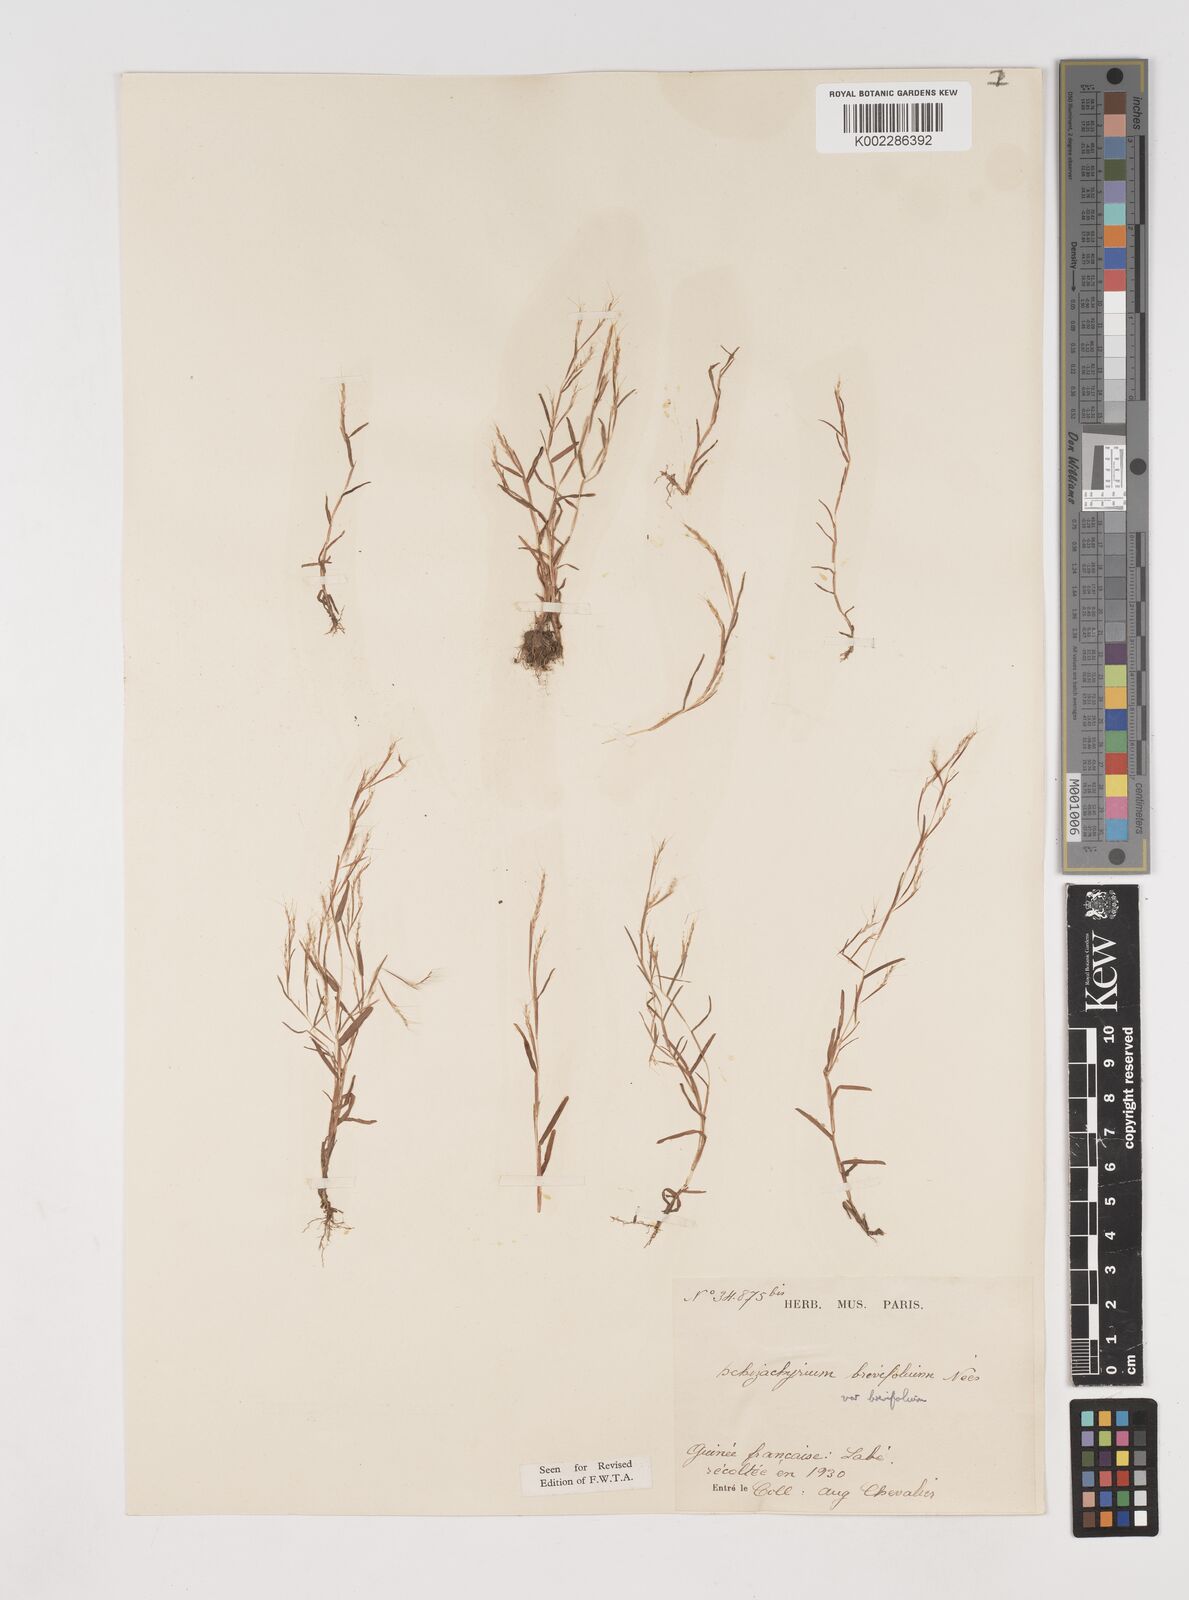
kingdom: Plantae
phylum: Tracheophyta
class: Liliopsida
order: Poales
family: Poaceae
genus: Schizachyrium
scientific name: Schizachyrium brevifolium
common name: Serillo dulce
